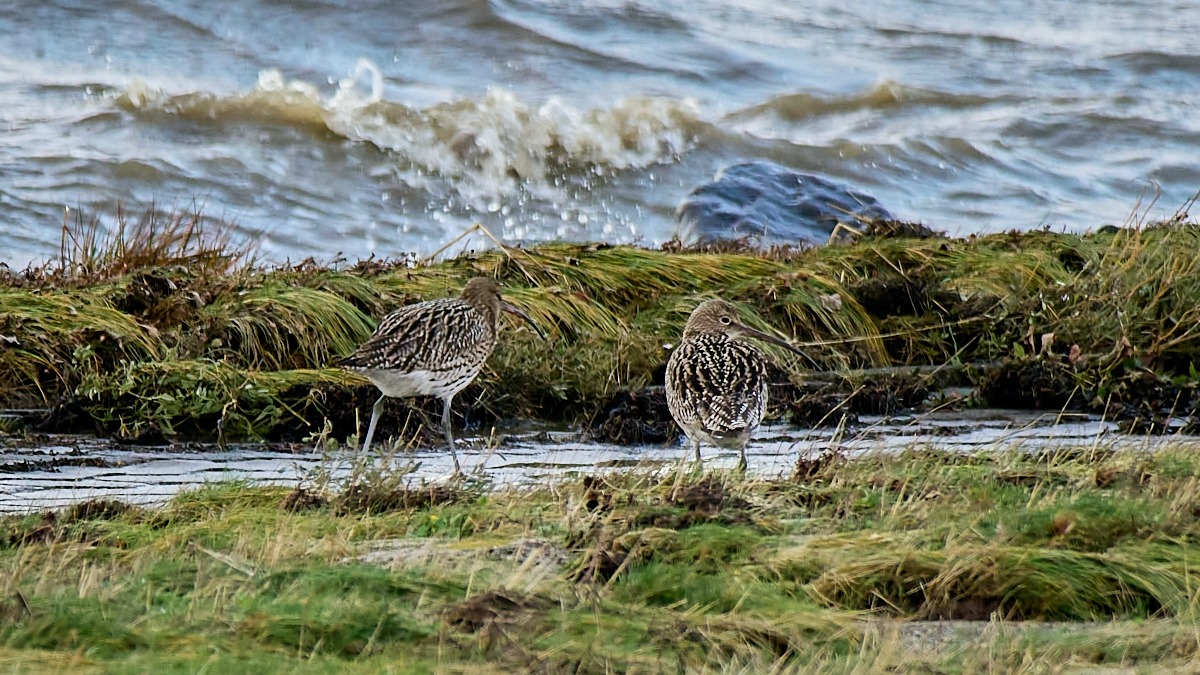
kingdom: Animalia
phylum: Chordata
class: Aves
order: Charadriiformes
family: Scolopacidae
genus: Numenius
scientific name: Numenius arquata
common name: Storspove
